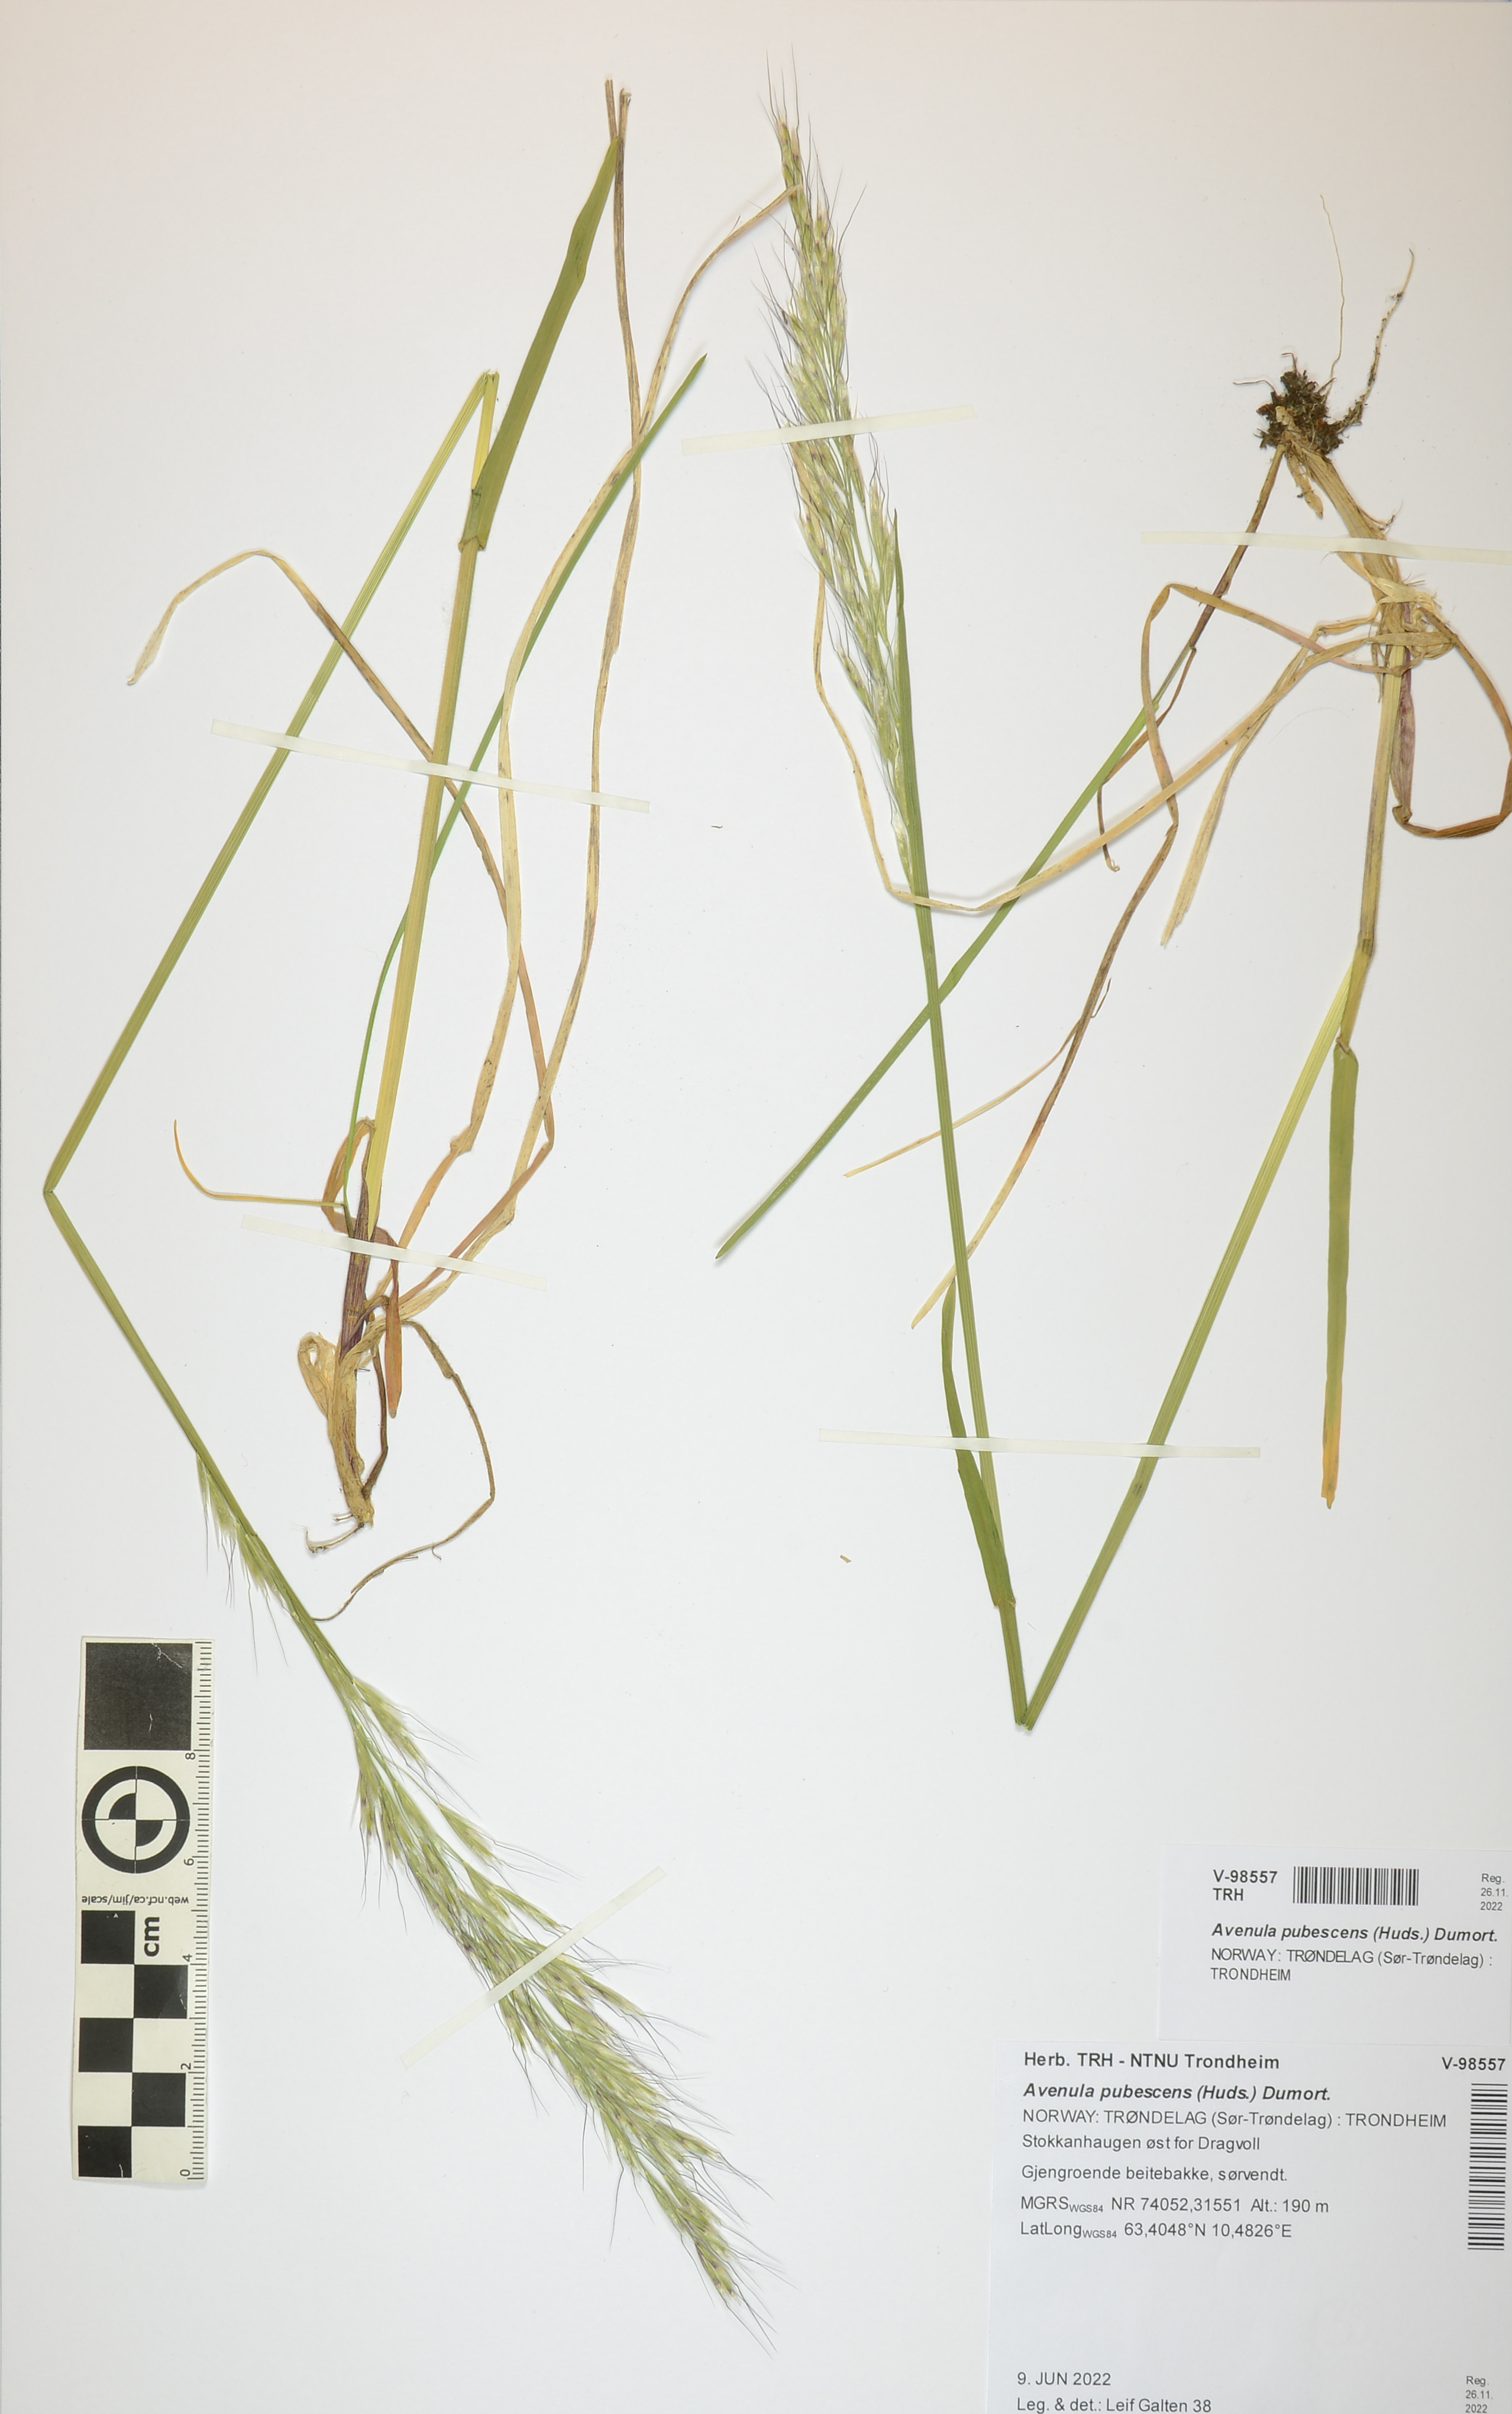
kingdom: Plantae
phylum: Tracheophyta
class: Liliopsida
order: Poales
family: Poaceae
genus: Avenula
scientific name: Avenula pubescens
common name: Downy alpine oatgrass
